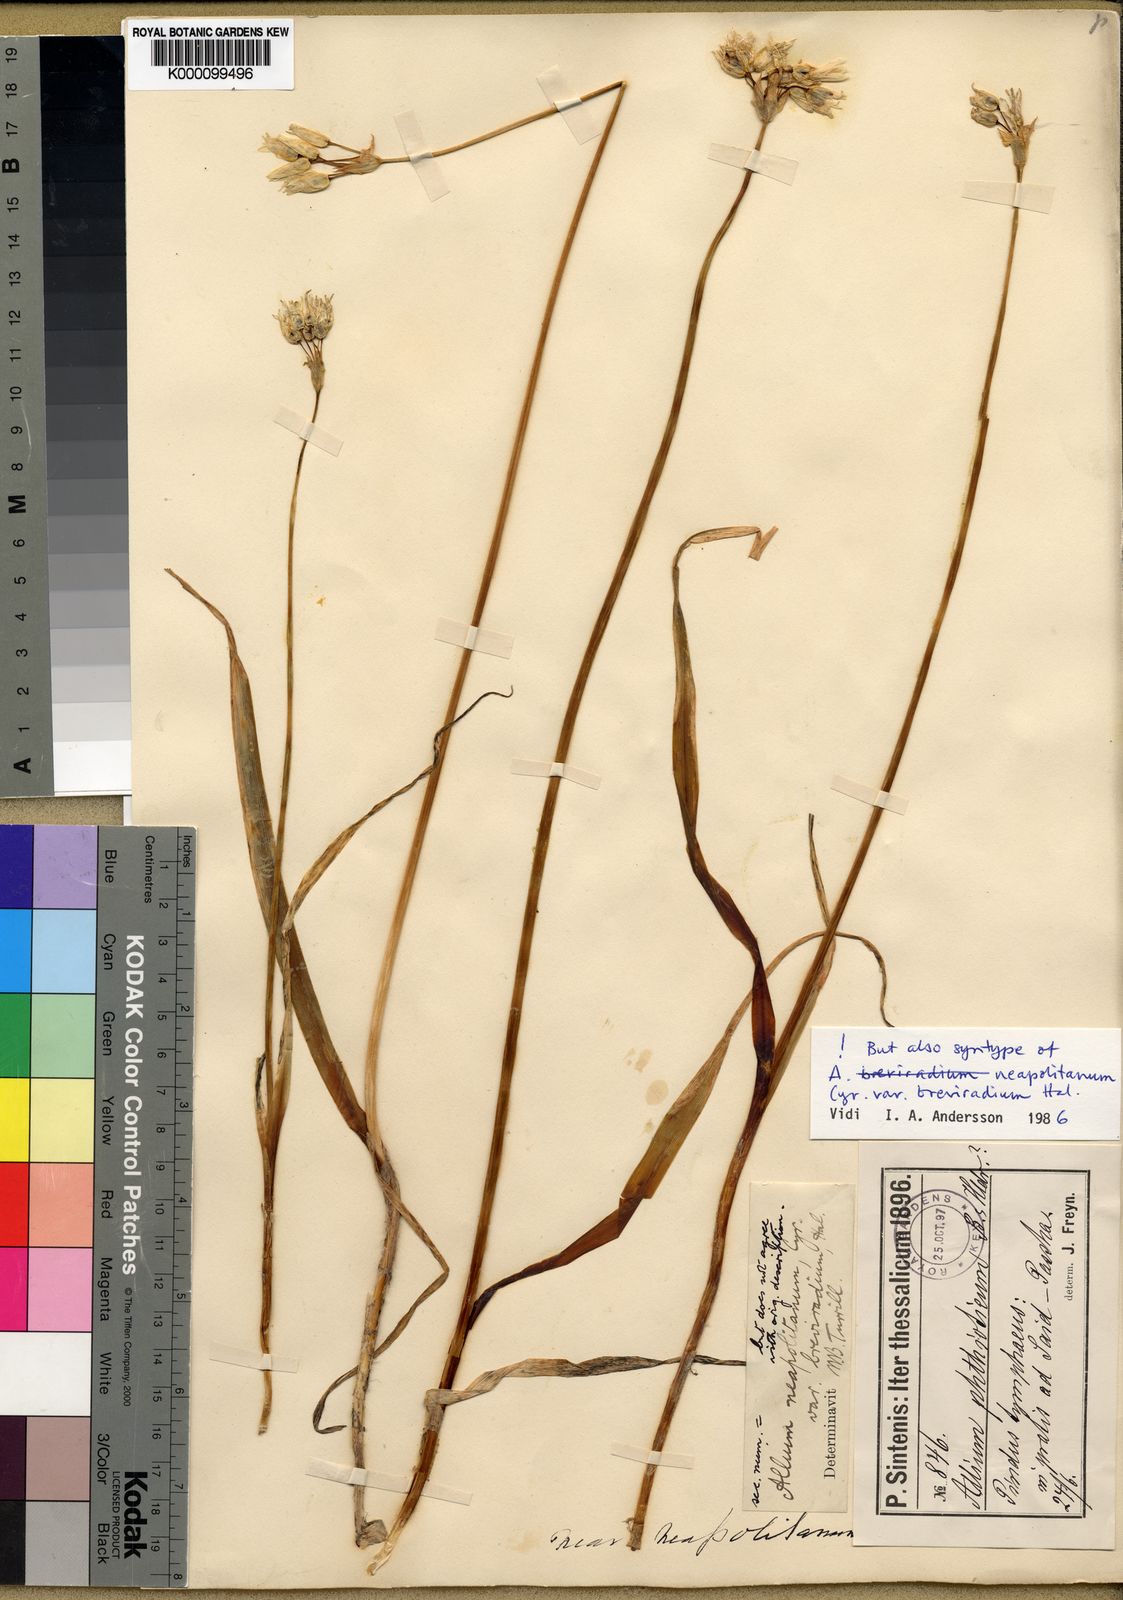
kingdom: Plantae
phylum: Tracheophyta
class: Liliopsida
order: Asparagales
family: Amaryllidaceae
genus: Allium
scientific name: Allium phthioticum
